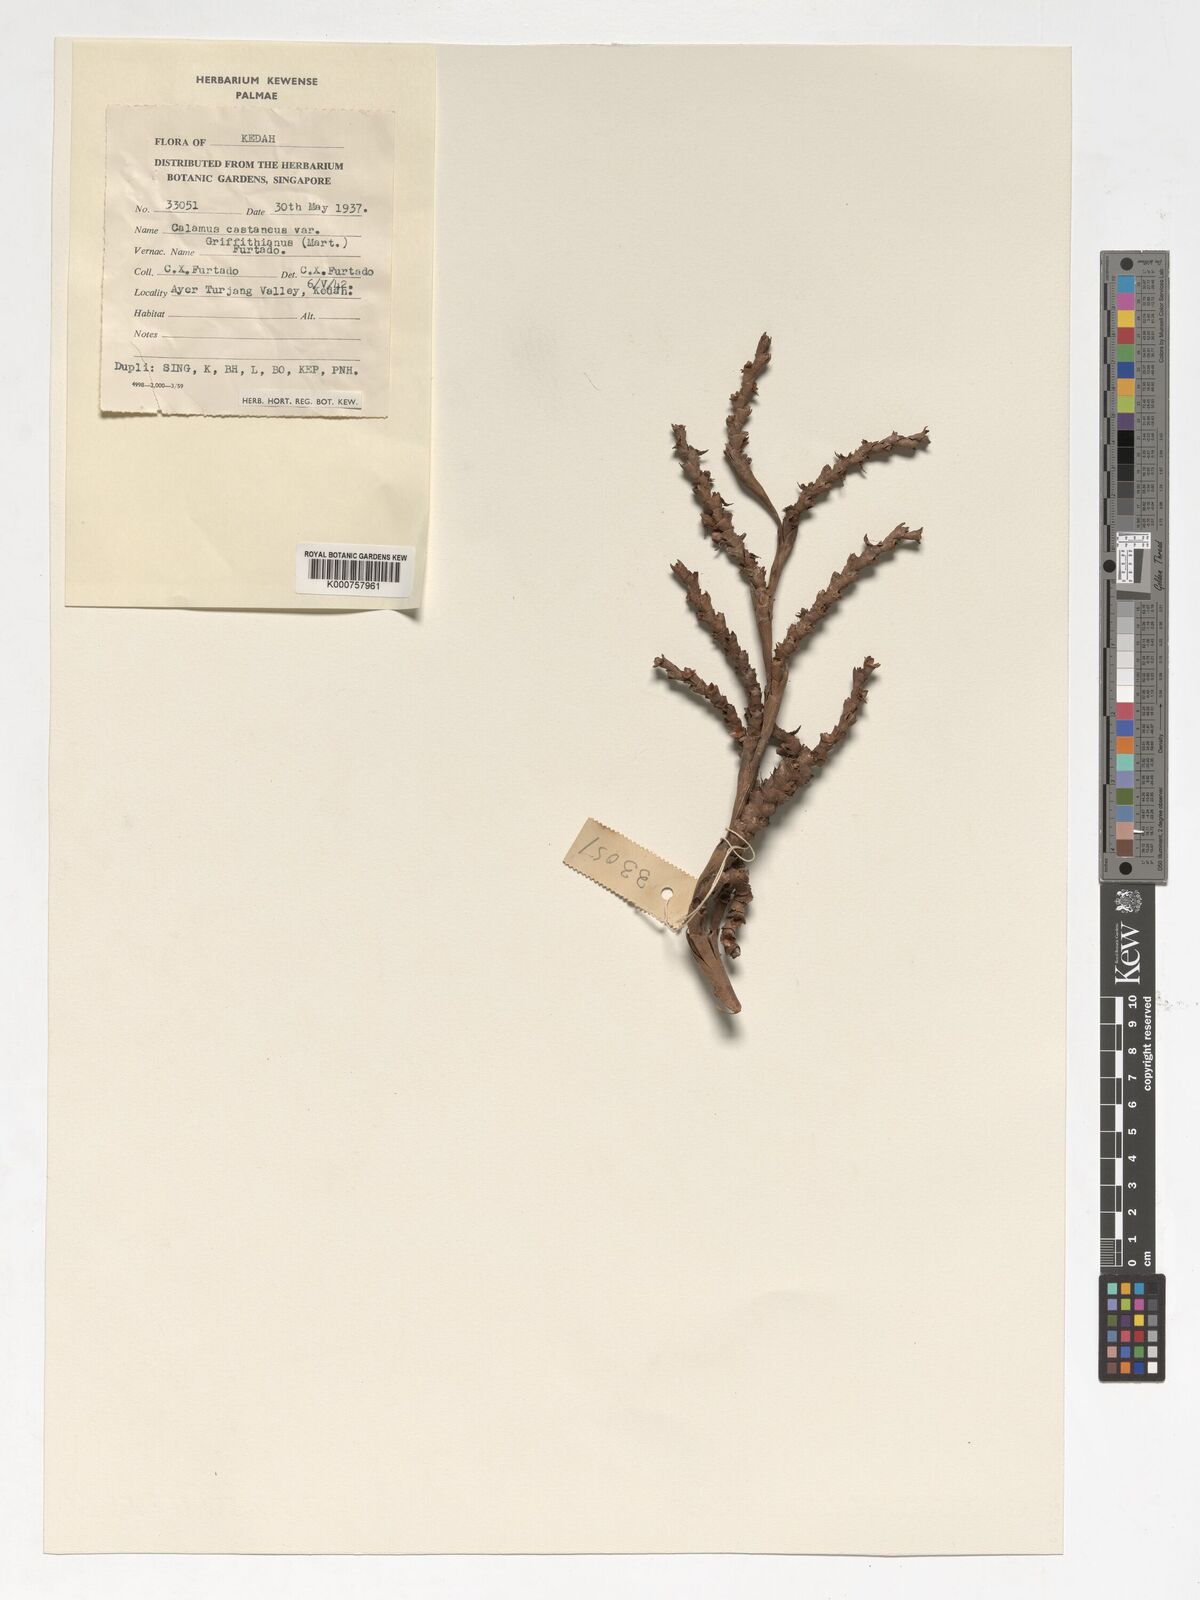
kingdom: Plantae
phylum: Tracheophyta
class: Liliopsida
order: Arecales
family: Arecaceae
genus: Calamus
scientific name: Calamus castaneus
